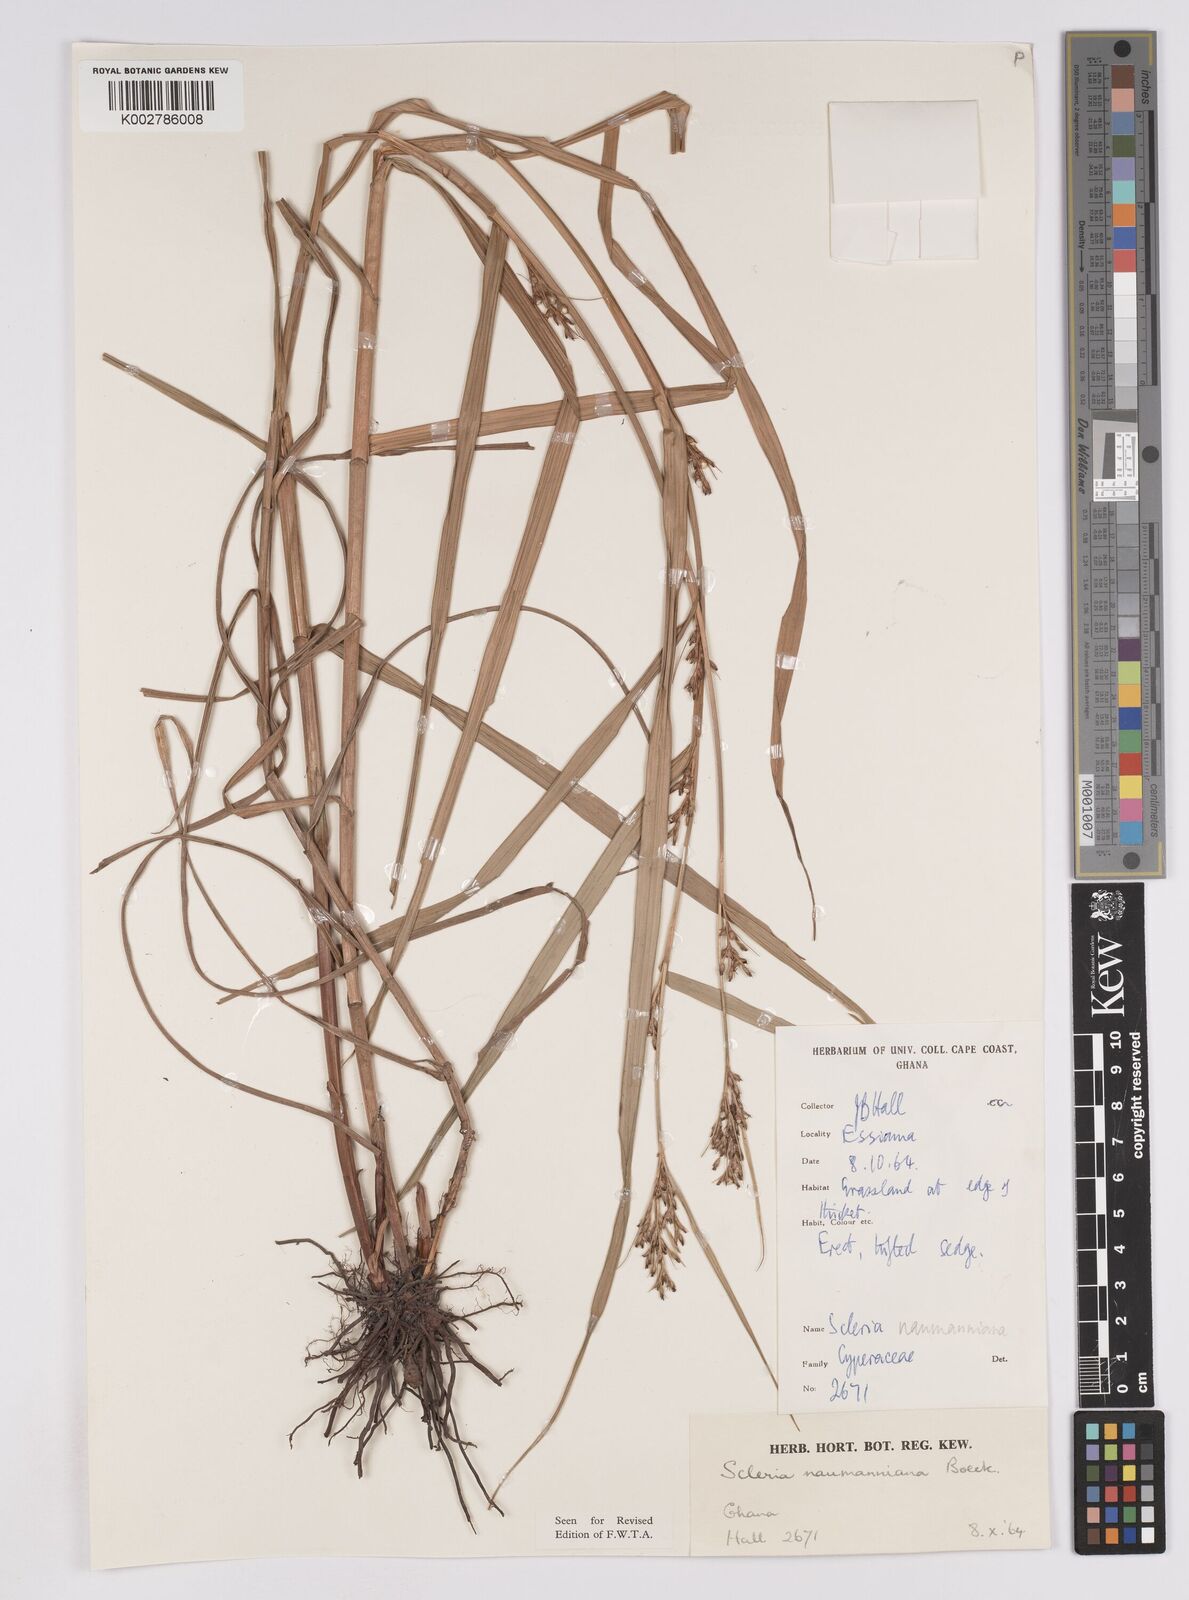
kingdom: Plantae
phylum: Tracheophyta
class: Liliopsida
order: Poales
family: Cyperaceae
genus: Scleria
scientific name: Scleria naumanniana
